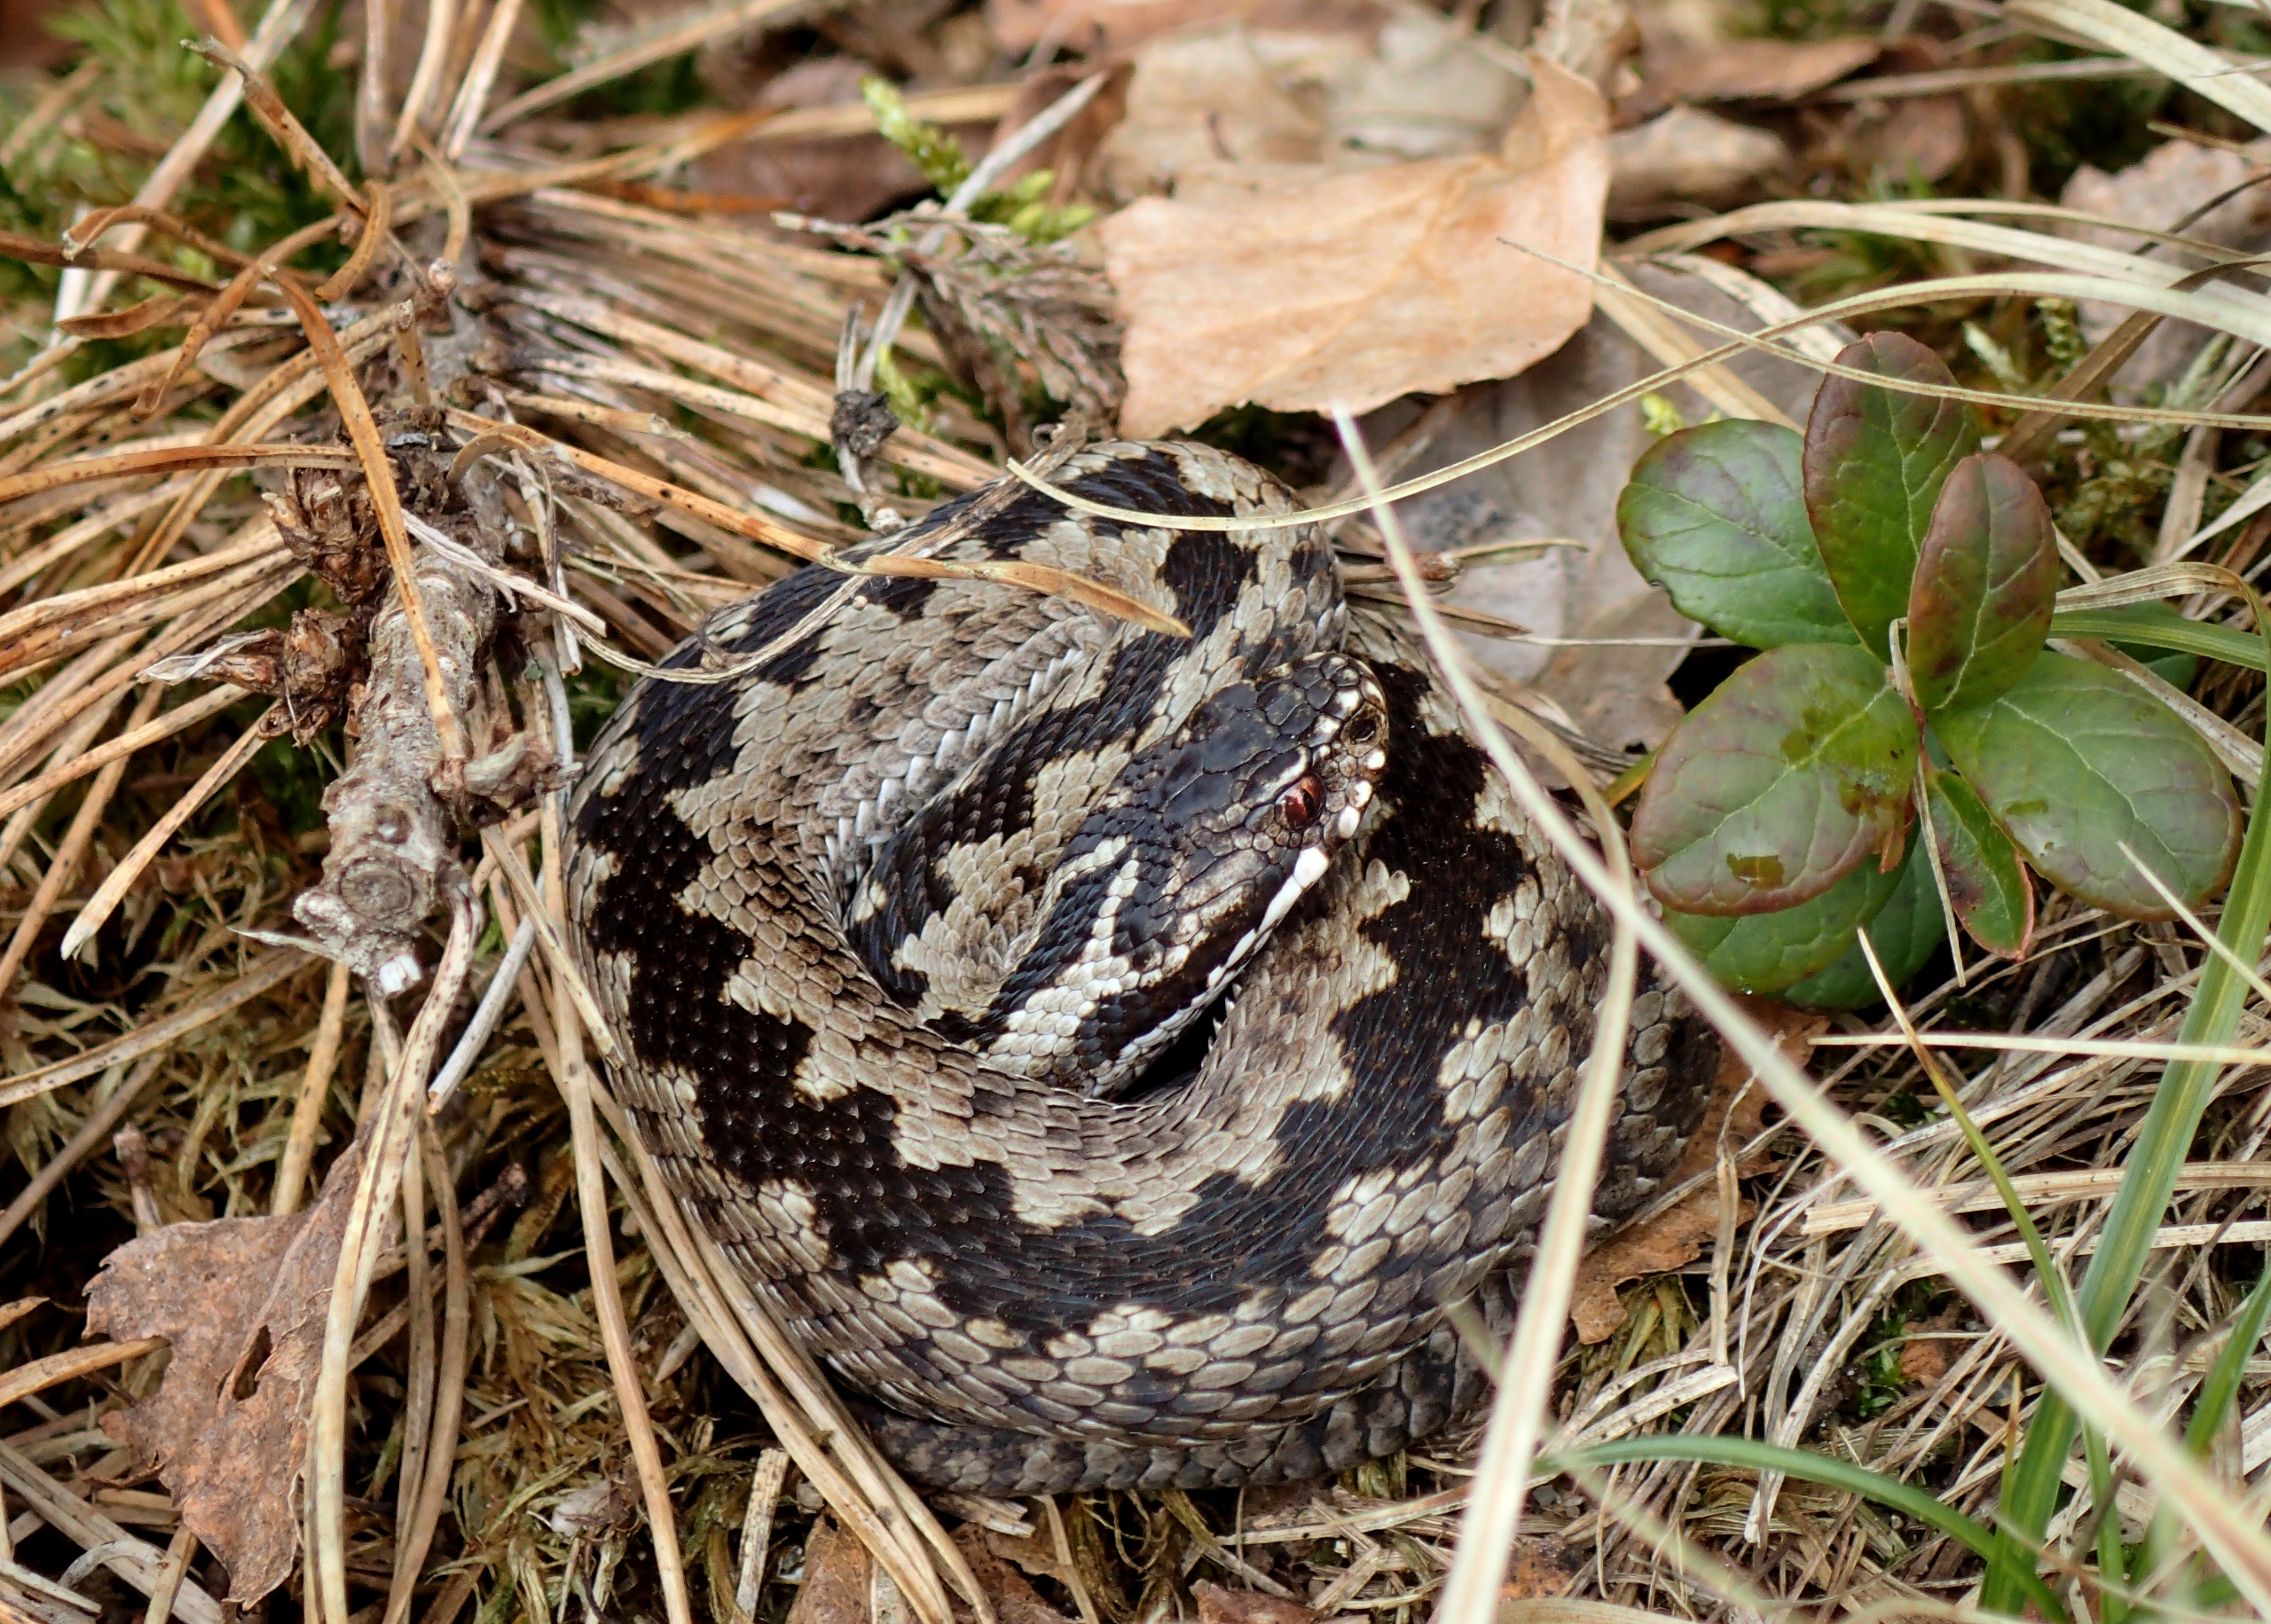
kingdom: Animalia
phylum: Chordata
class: Squamata
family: Viperidae
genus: Vipera
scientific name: Vipera berus
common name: Hugorm
